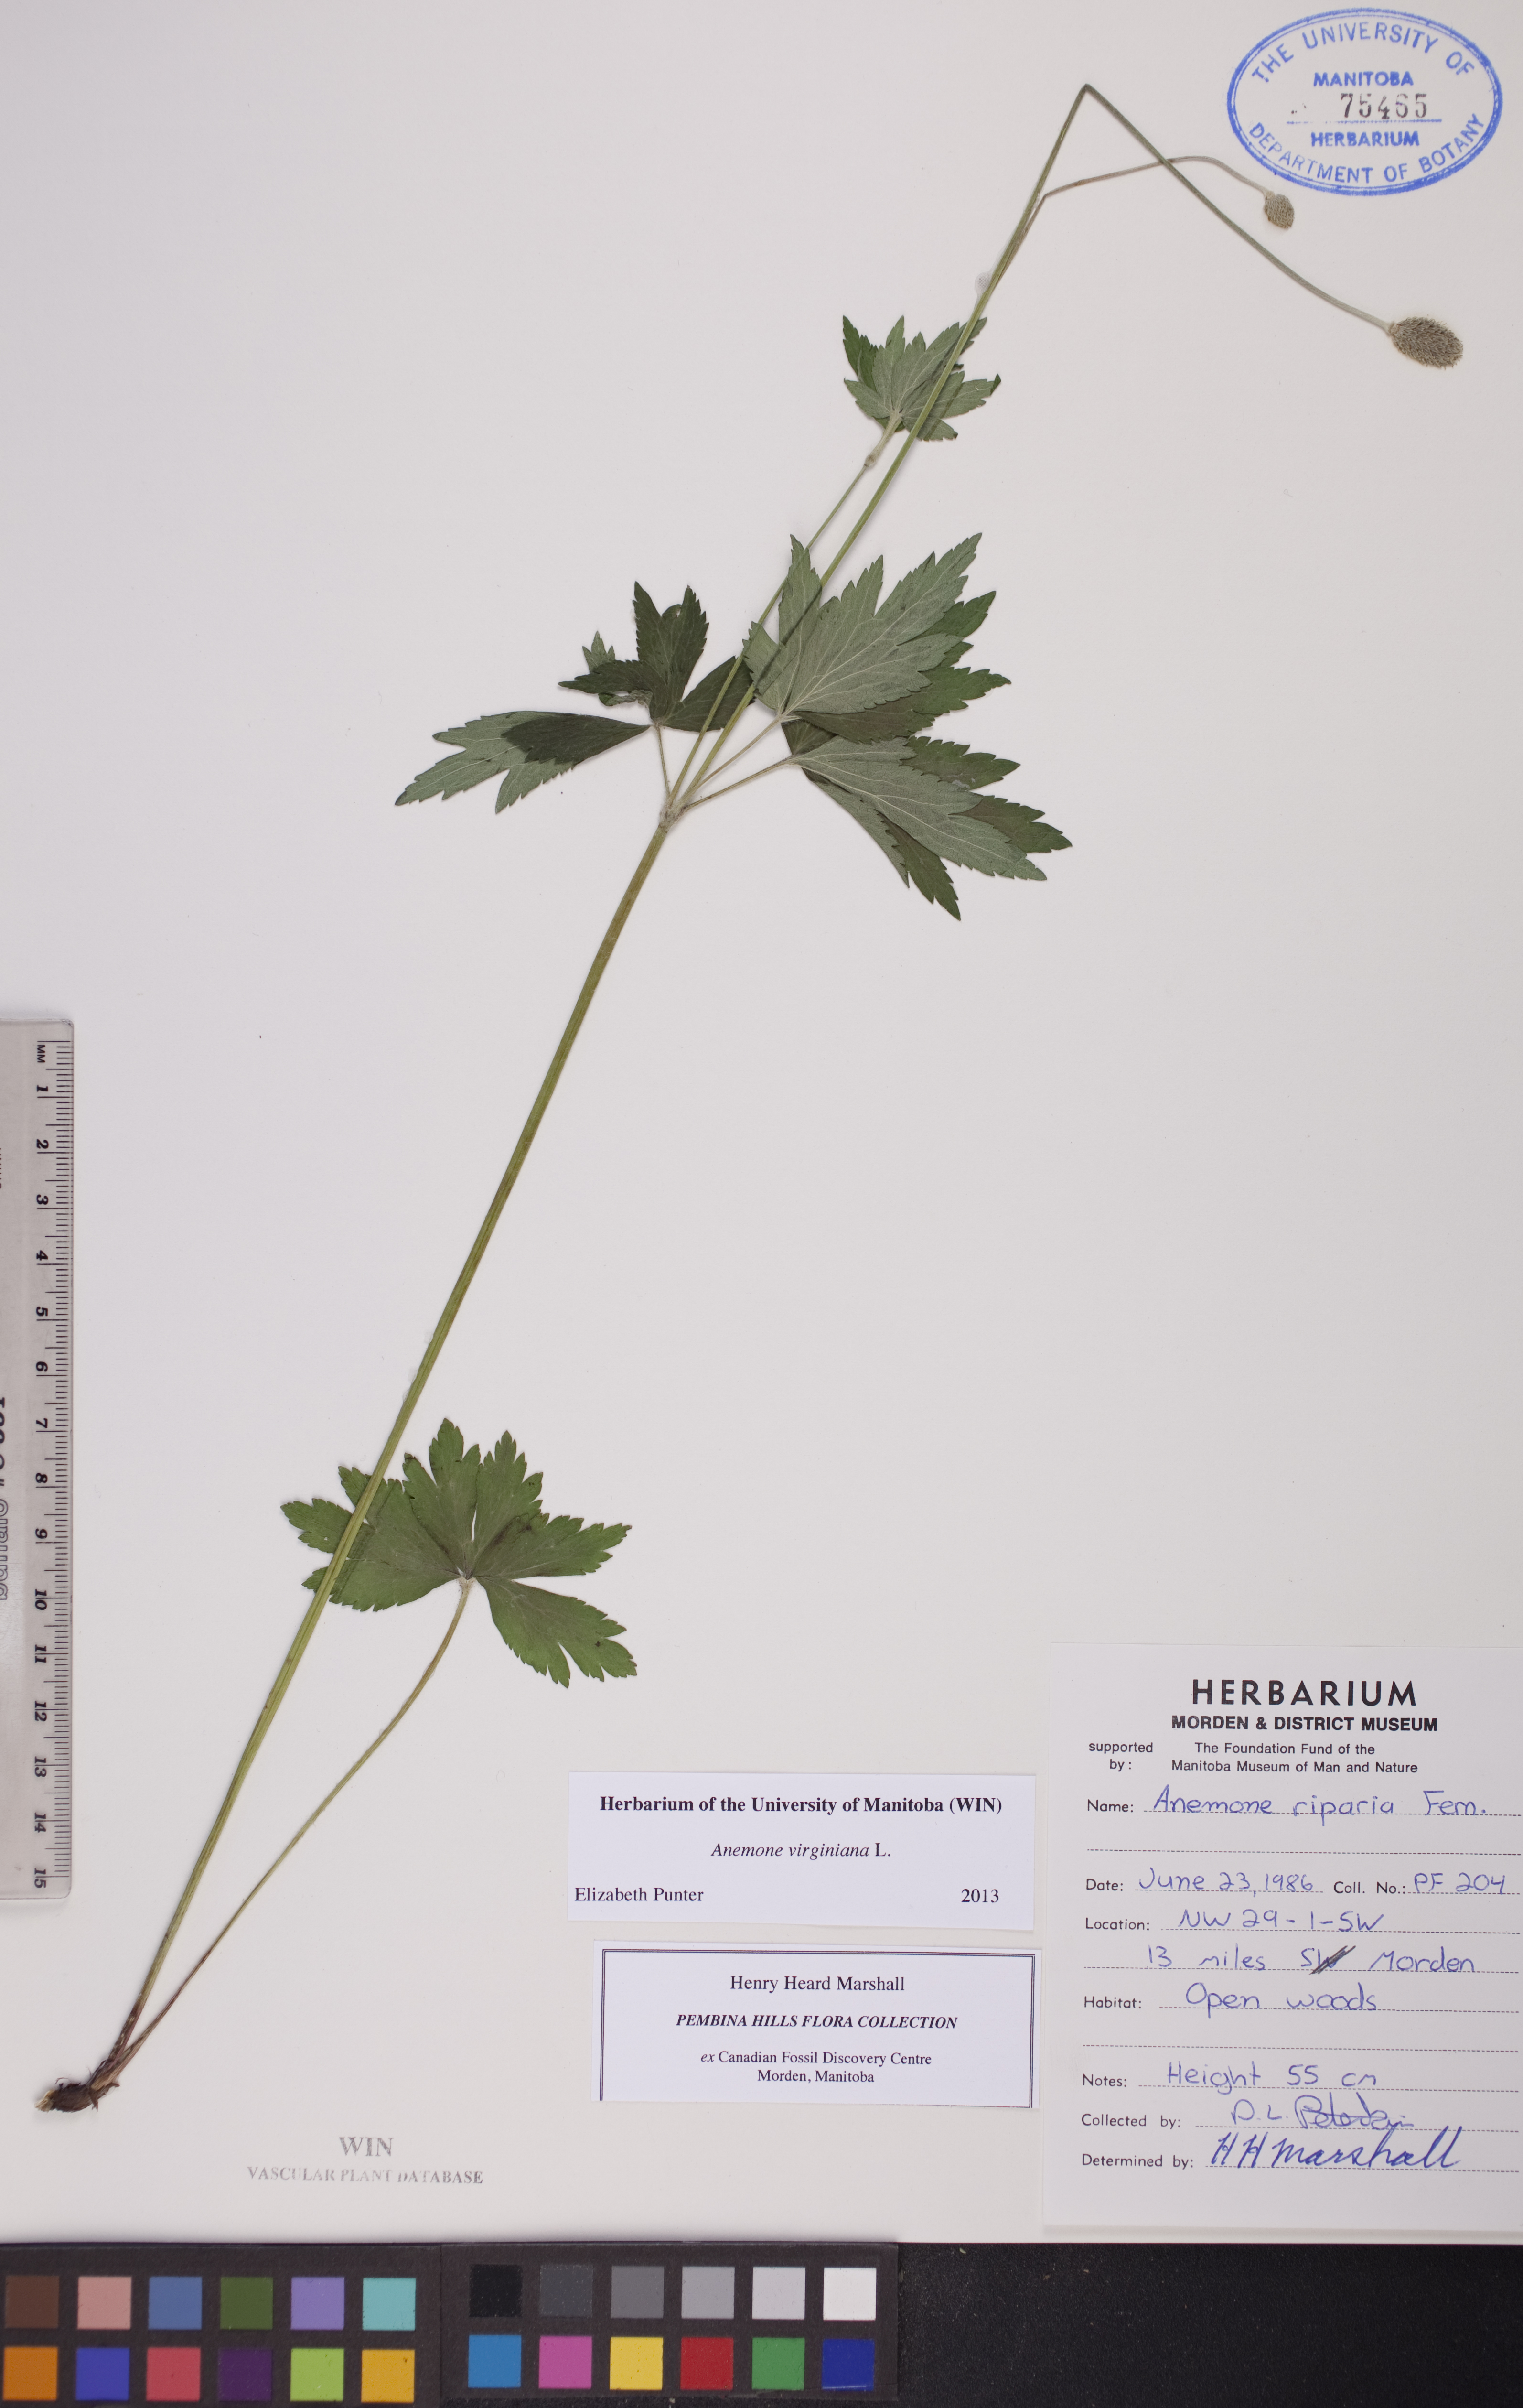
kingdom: Plantae
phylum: Tracheophyta
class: Magnoliopsida
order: Ranunculales
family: Ranunculaceae
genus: Anemone
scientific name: Anemone virginiana
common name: Tall anemone
